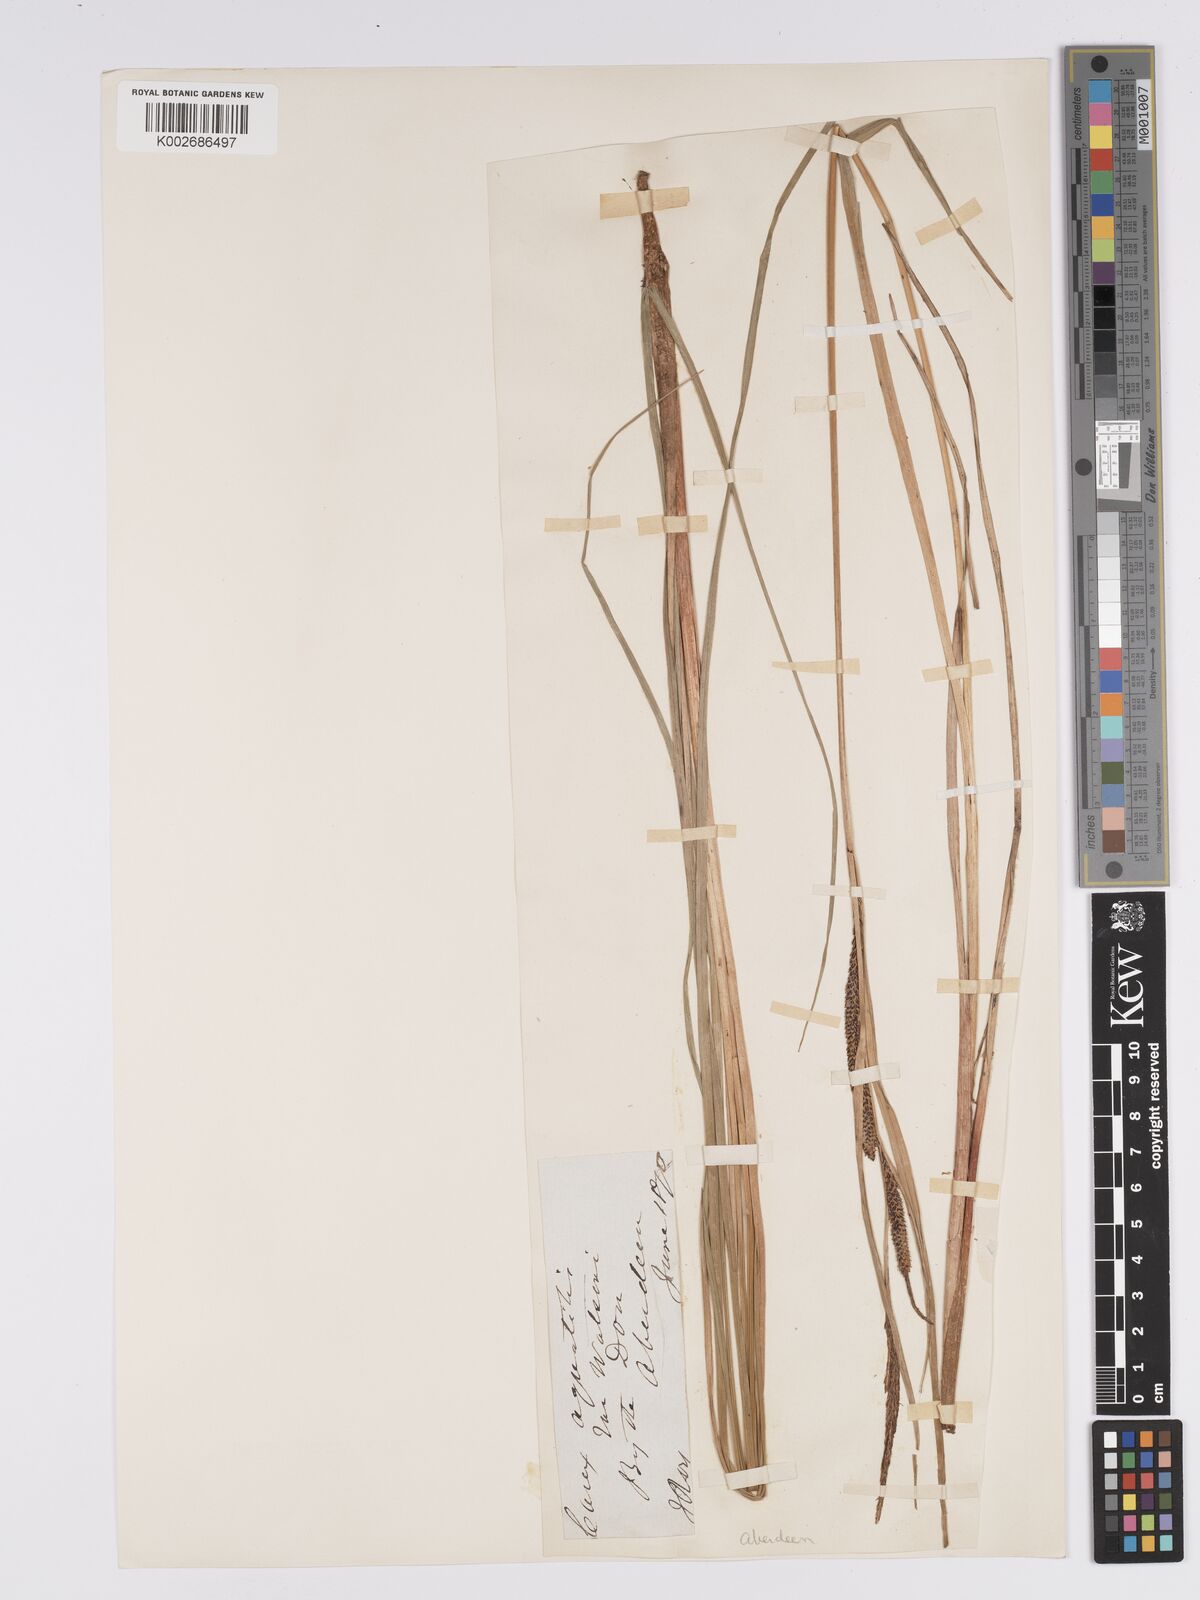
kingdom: Plantae
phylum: Tracheophyta
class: Liliopsida
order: Poales
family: Cyperaceae
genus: Carex
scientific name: Carex aquatilis
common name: Water sedge
